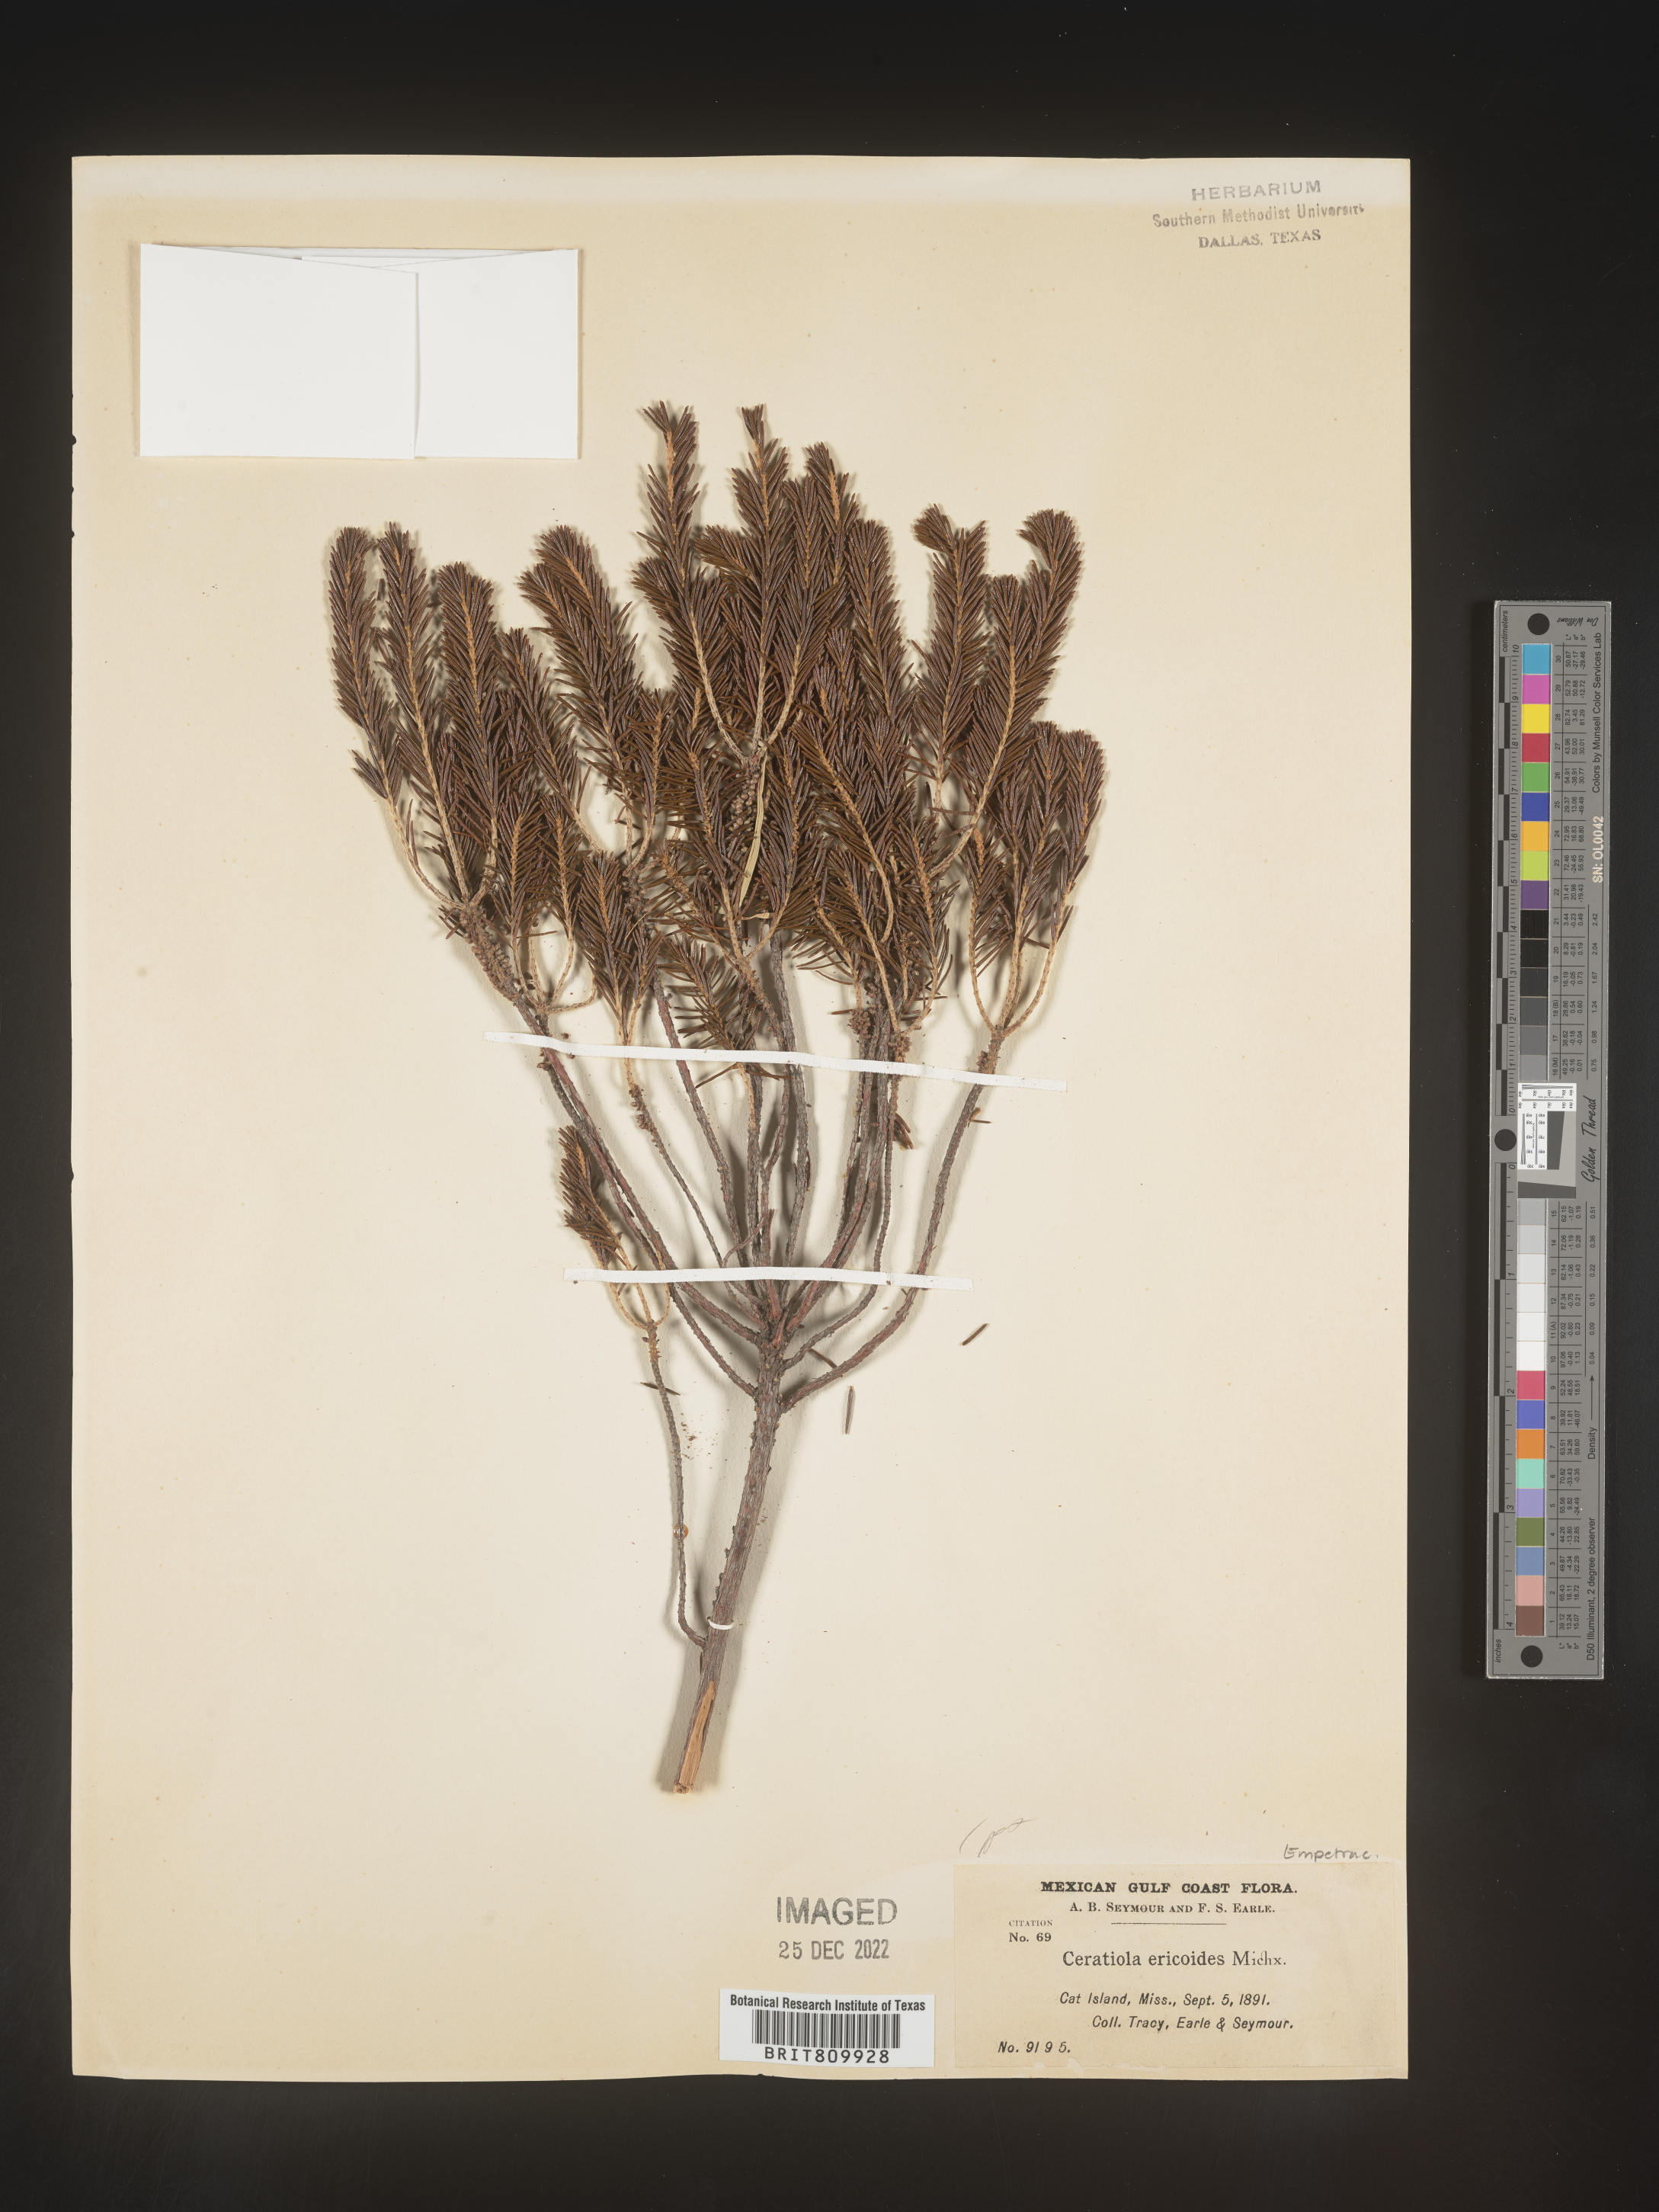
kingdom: Plantae
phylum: Tracheophyta
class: Magnoliopsida
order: Ericales
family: Ericaceae
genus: Ceratiola
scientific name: Ceratiola ericoides
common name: Sandhill-rosemary
